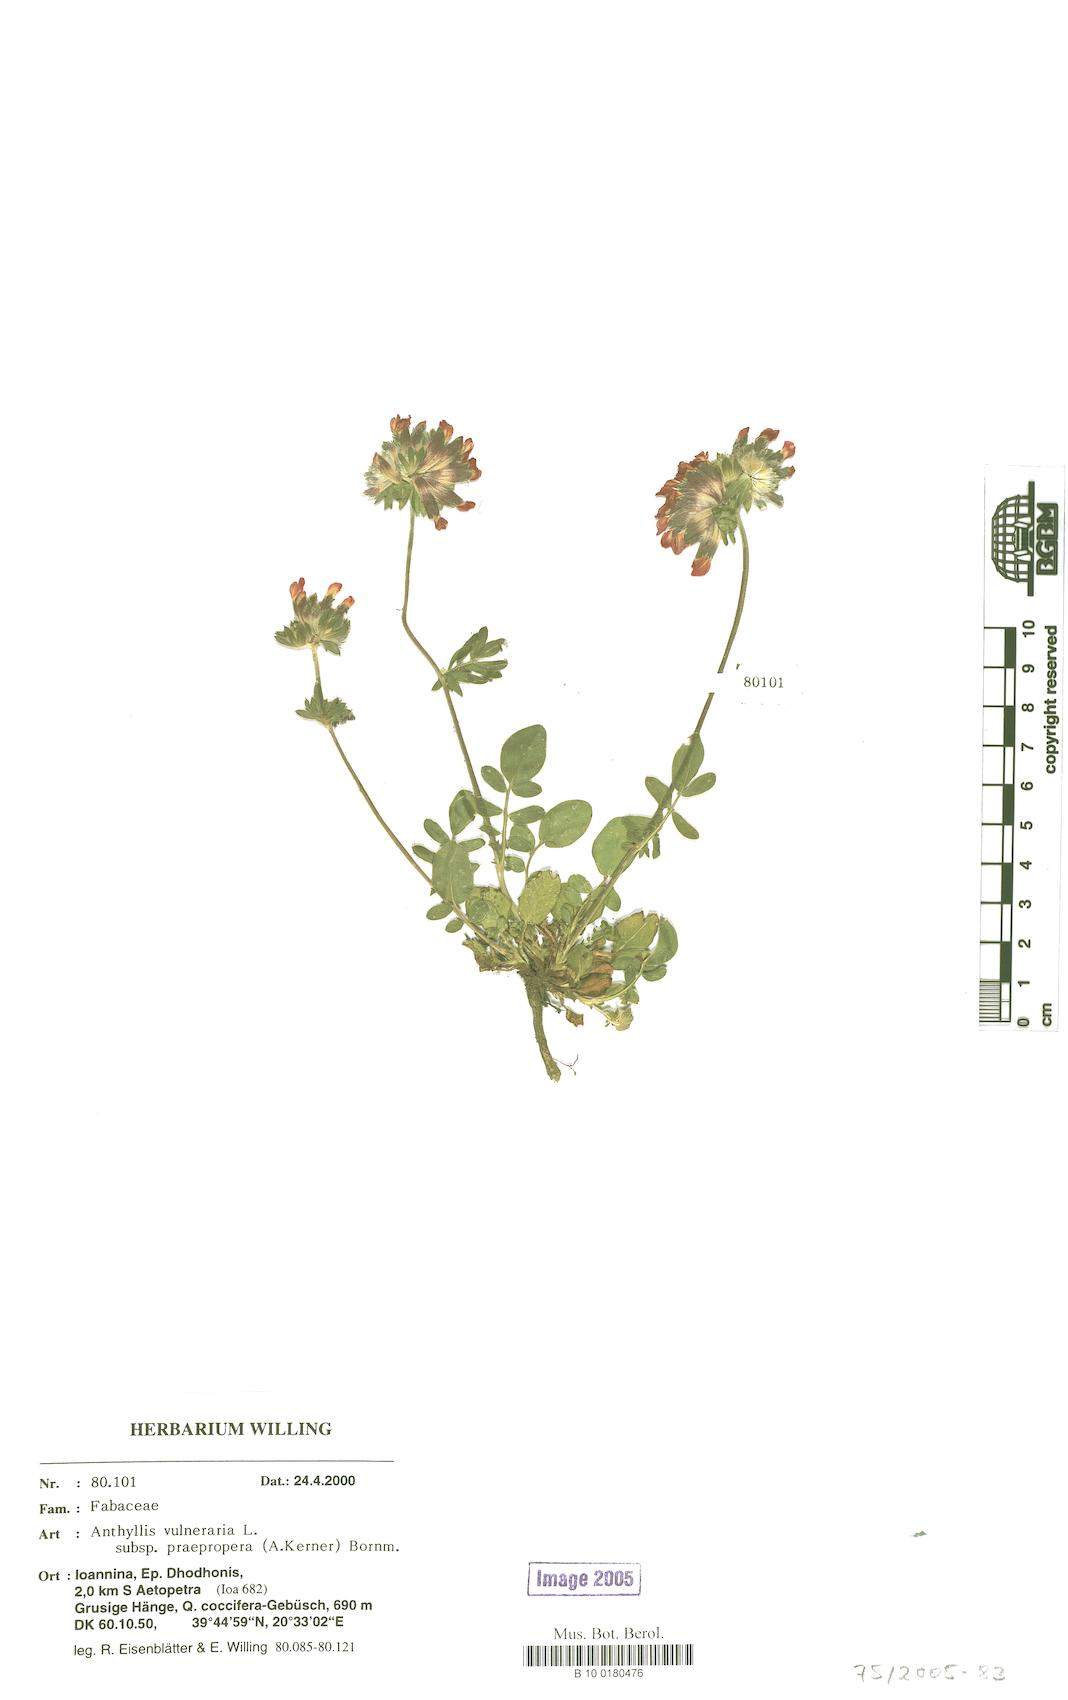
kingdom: Plantae
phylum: Tracheophyta
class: Magnoliopsida
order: Fabales
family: Fabaceae
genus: Anthyllis
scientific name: Anthyllis vulneraria
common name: Kidney vetch
